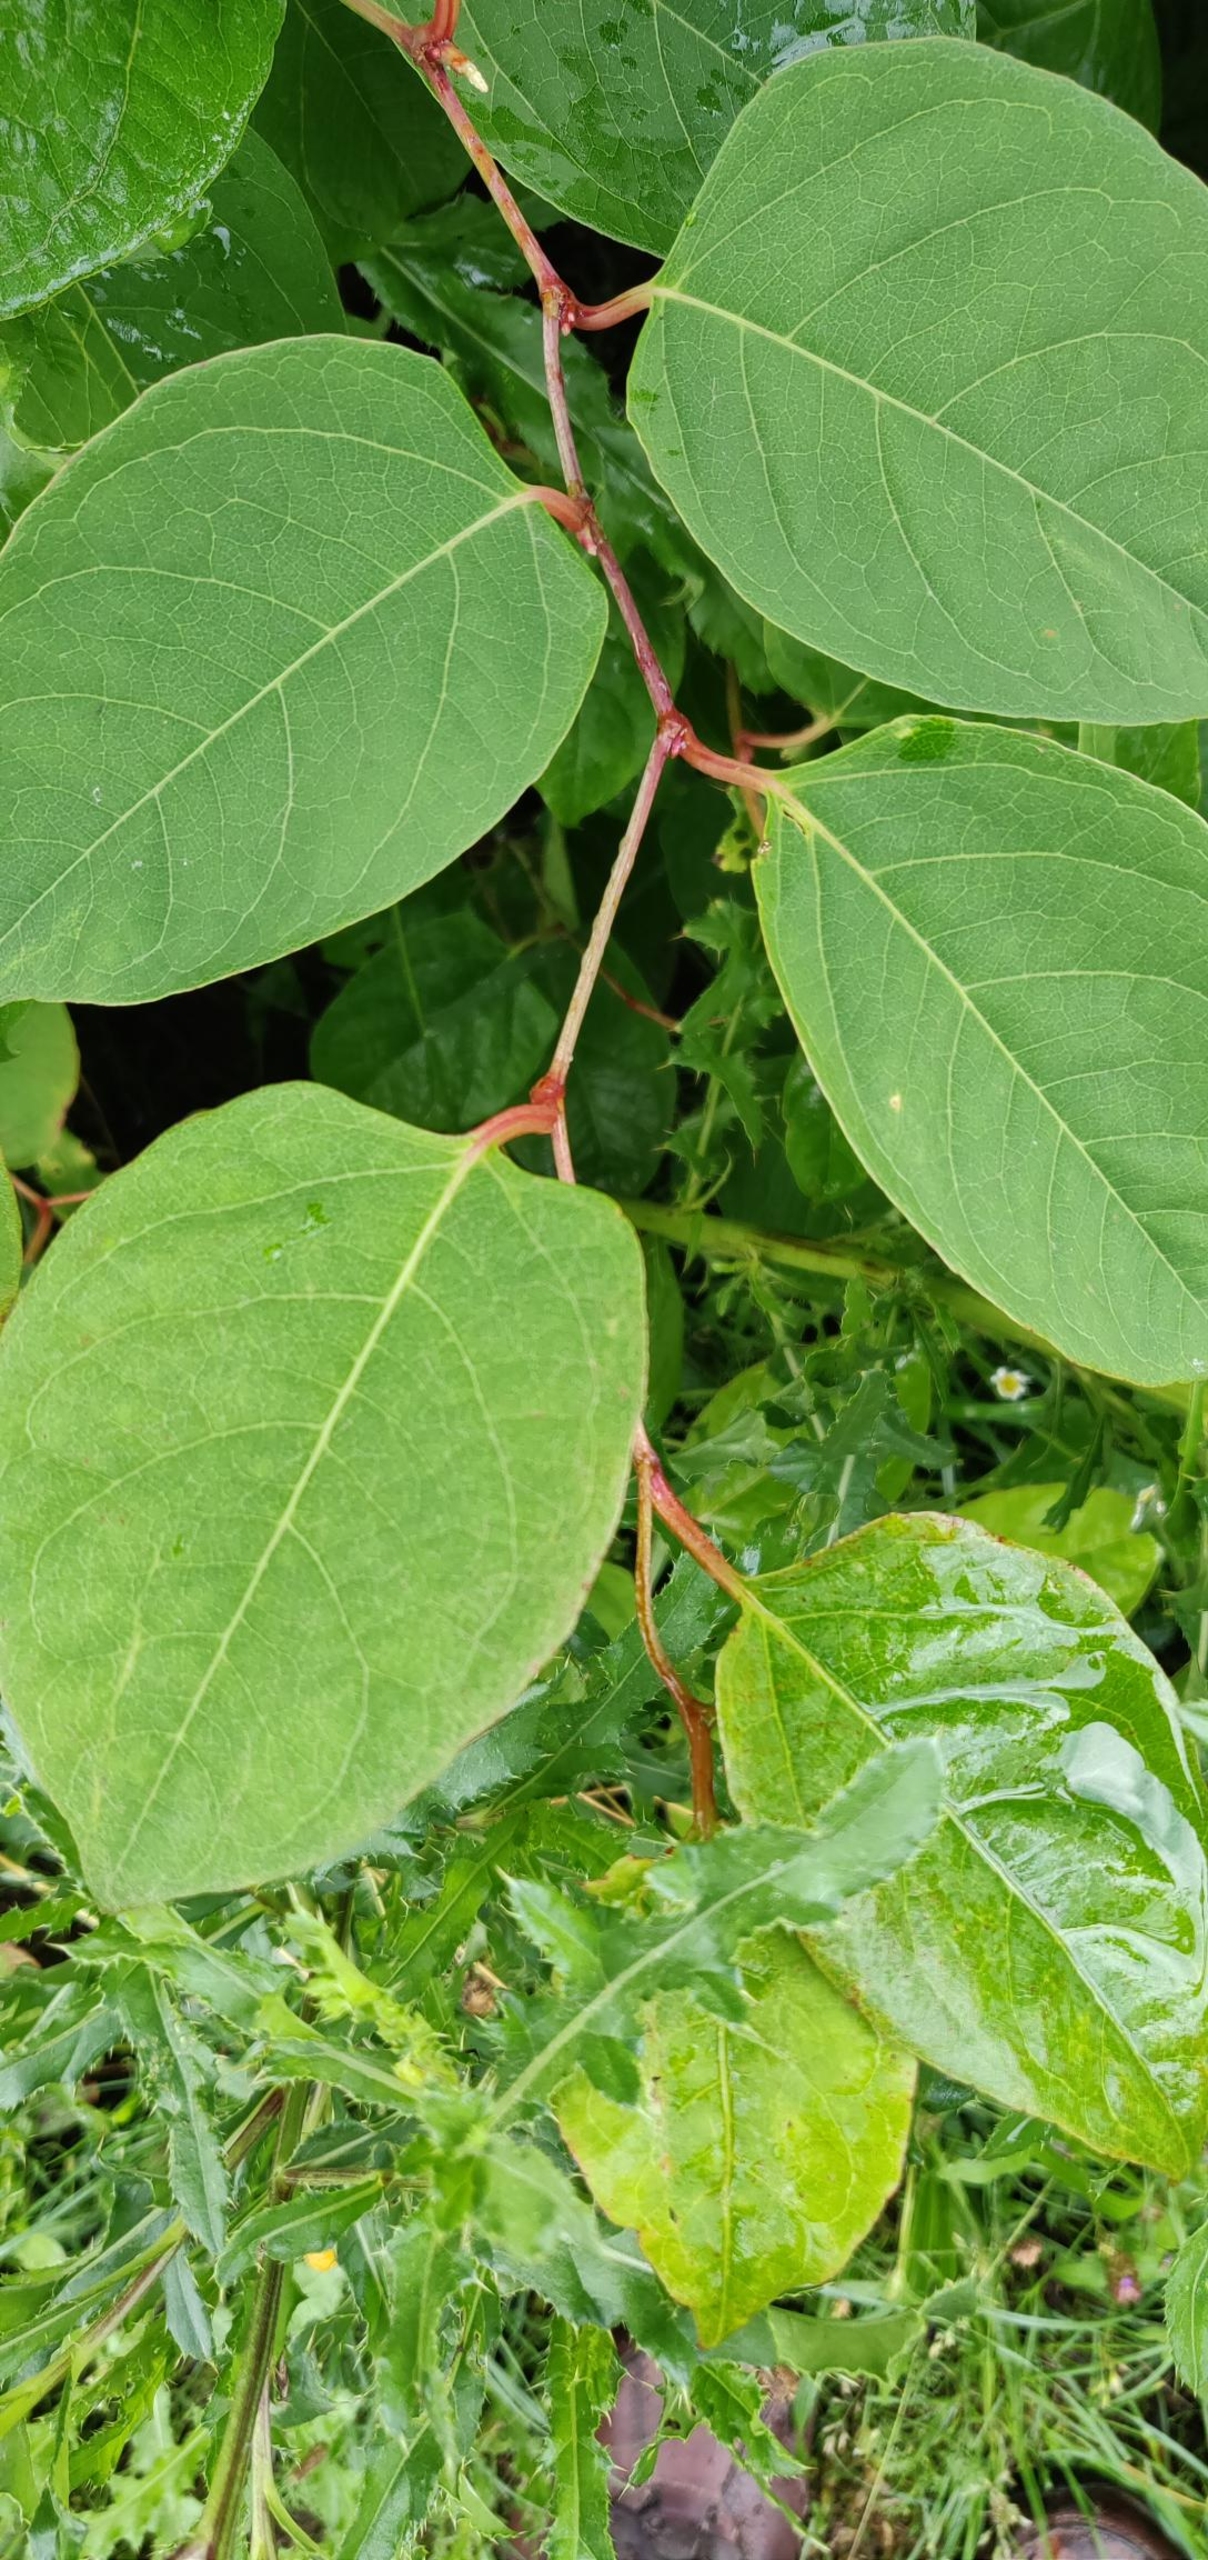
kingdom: Plantae
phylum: Tracheophyta
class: Magnoliopsida
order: Caryophyllales
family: Polygonaceae
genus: Reynoutria
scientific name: Reynoutria japonica
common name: Japan-pileurt
